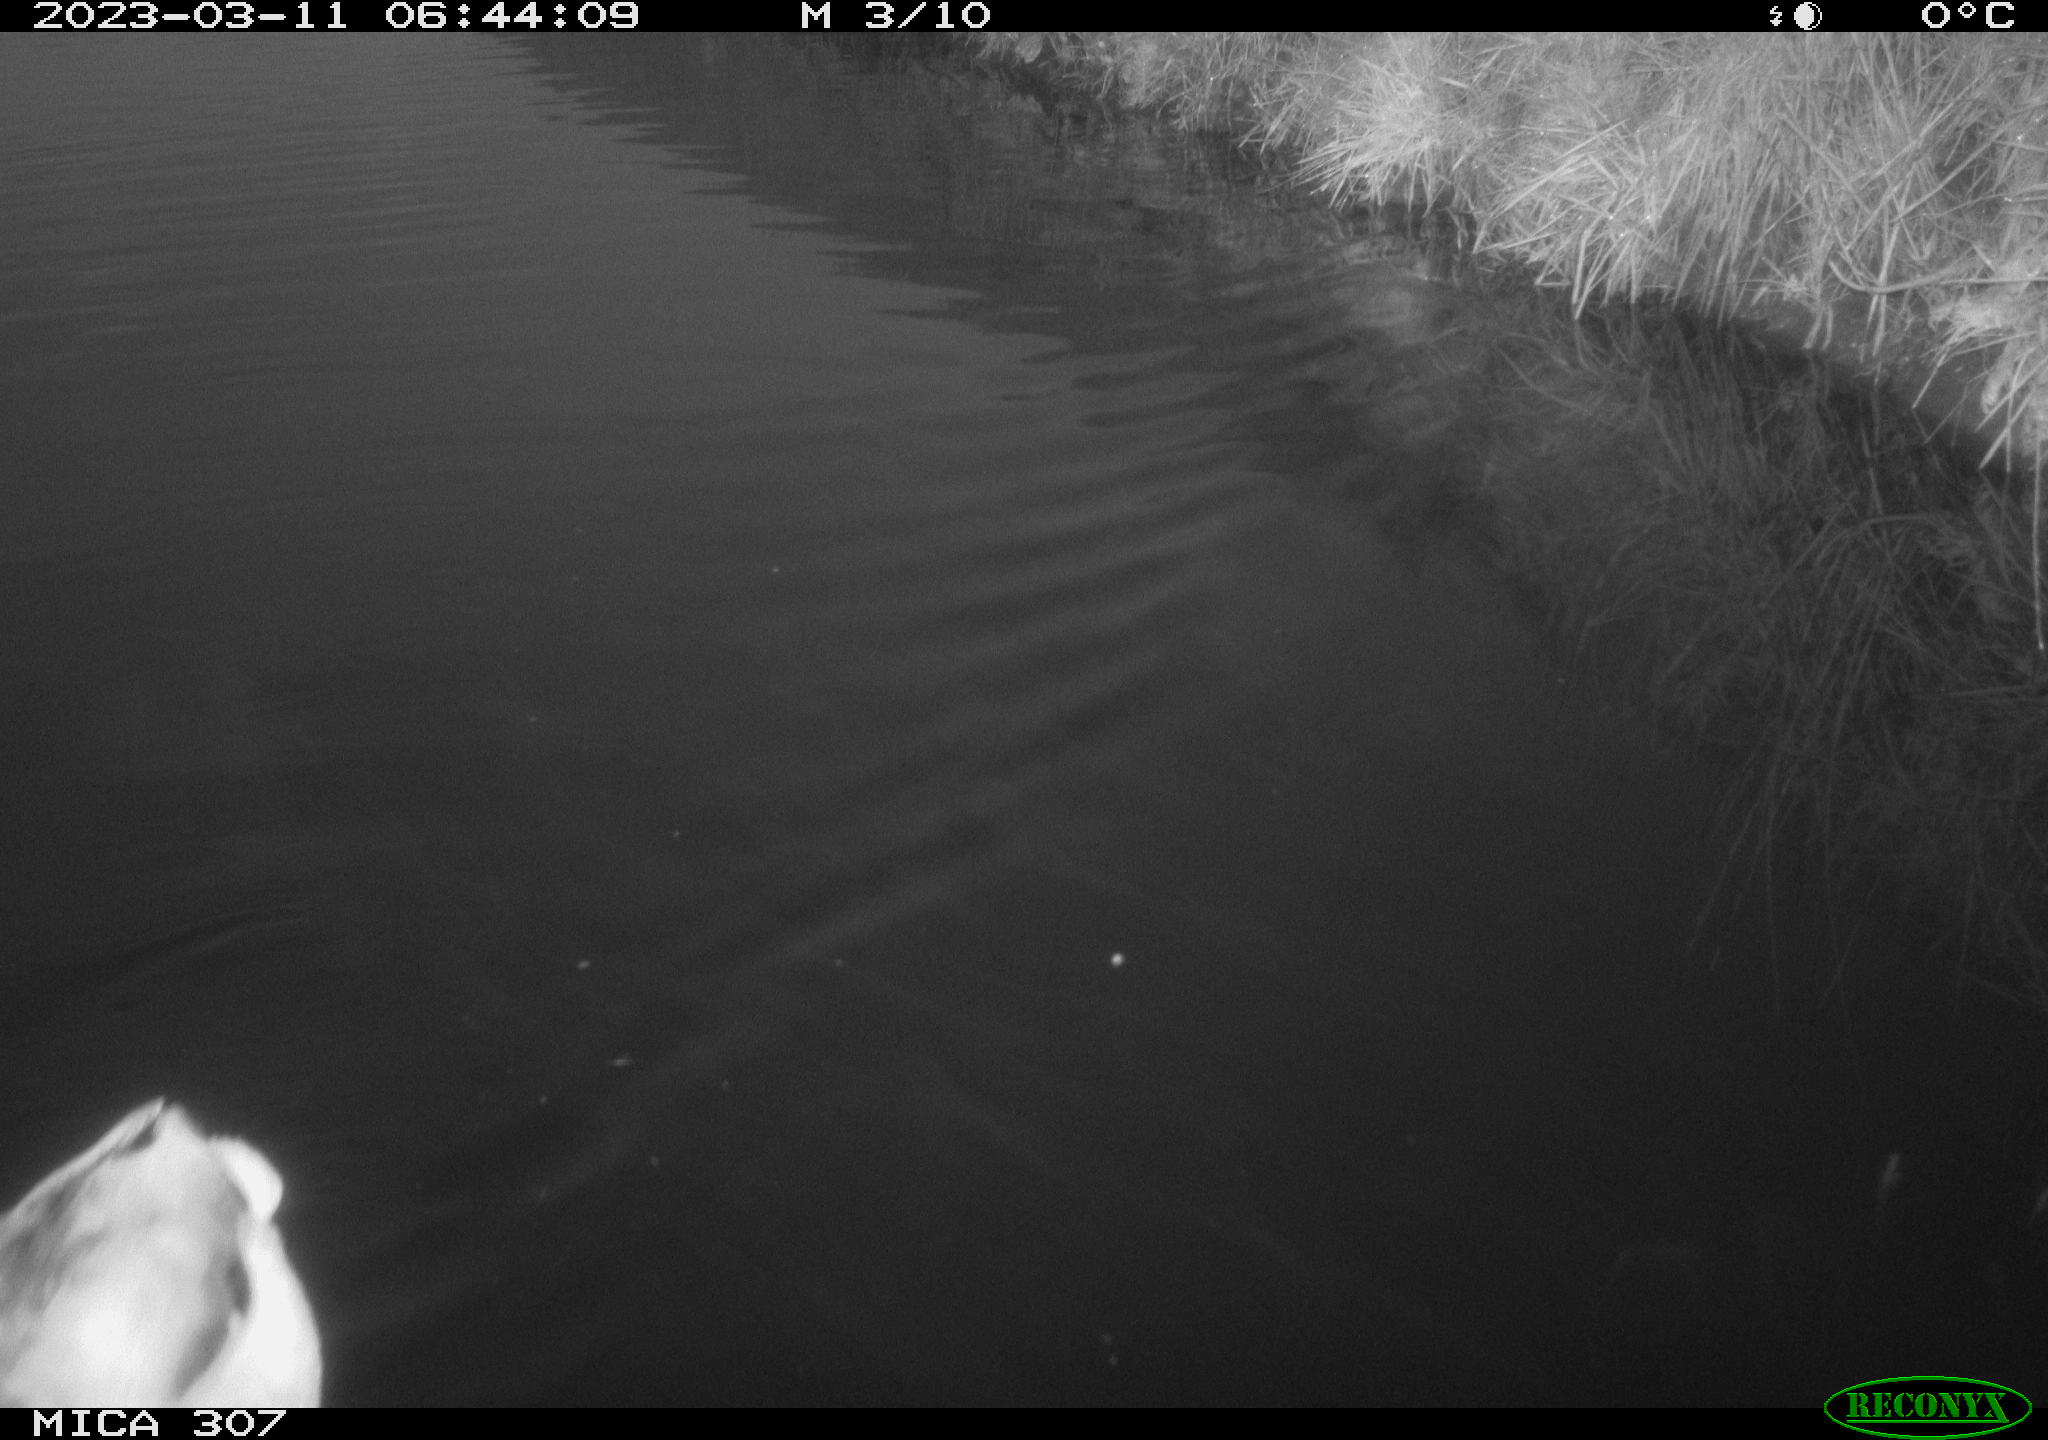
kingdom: Animalia
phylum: Chordata
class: Aves
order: Anseriformes
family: Anatidae
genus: Anas
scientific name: Anas
